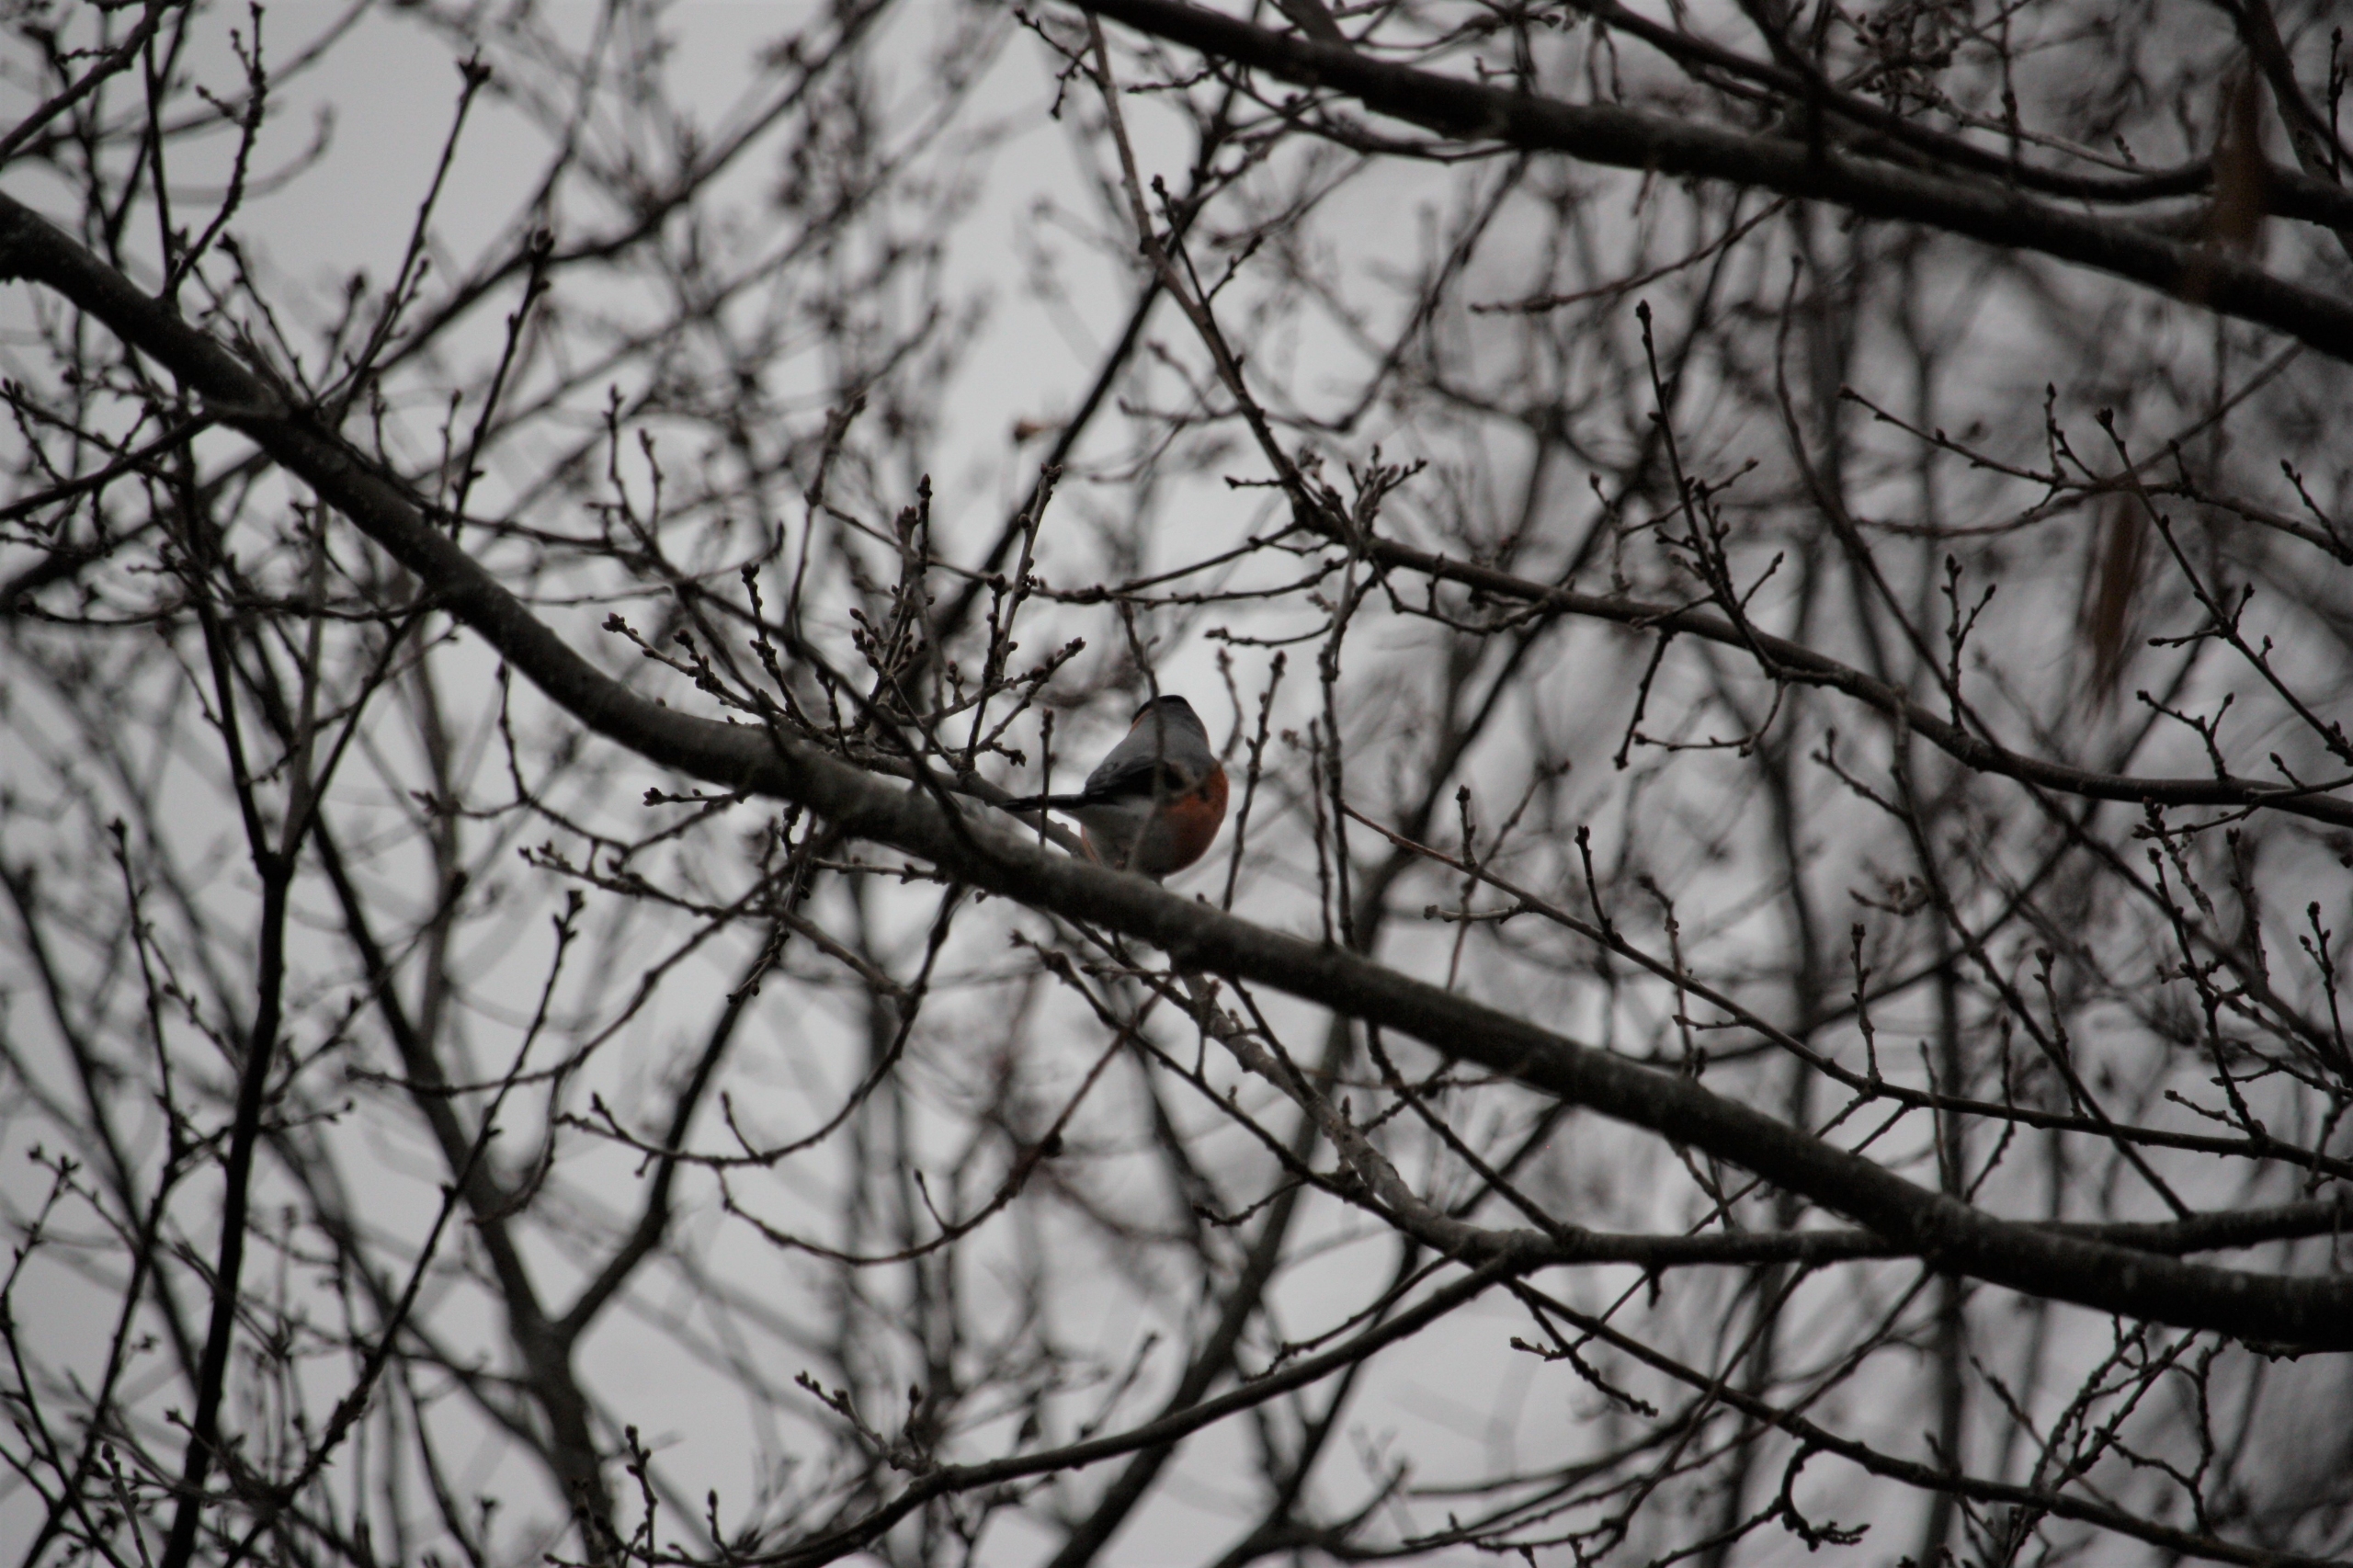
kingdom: Animalia
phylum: Chordata
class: Aves
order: Passeriformes
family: Fringillidae
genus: Pyrrhula
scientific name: Pyrrhula pyrrhula
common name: Dompap
